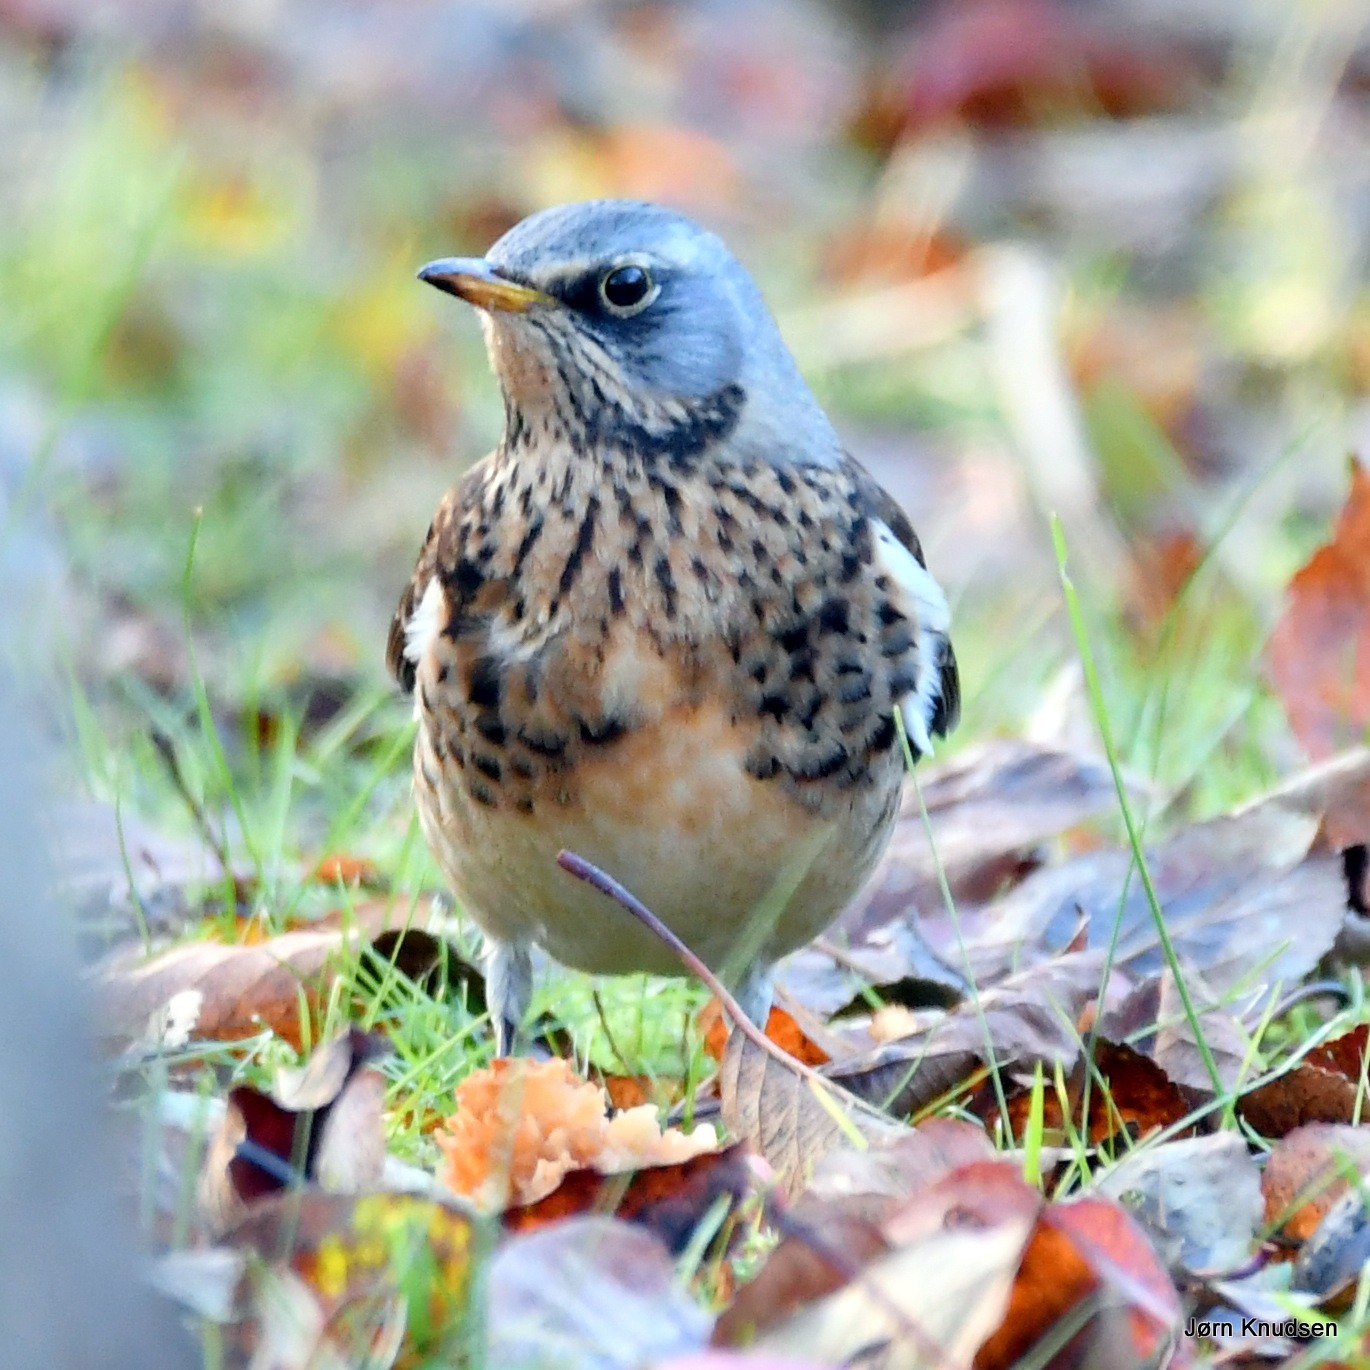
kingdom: Animalia
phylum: Chordata
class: Aves
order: Passeriformes
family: Turdidae
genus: Turdus
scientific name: Turdus pilaris
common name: Sjagger
